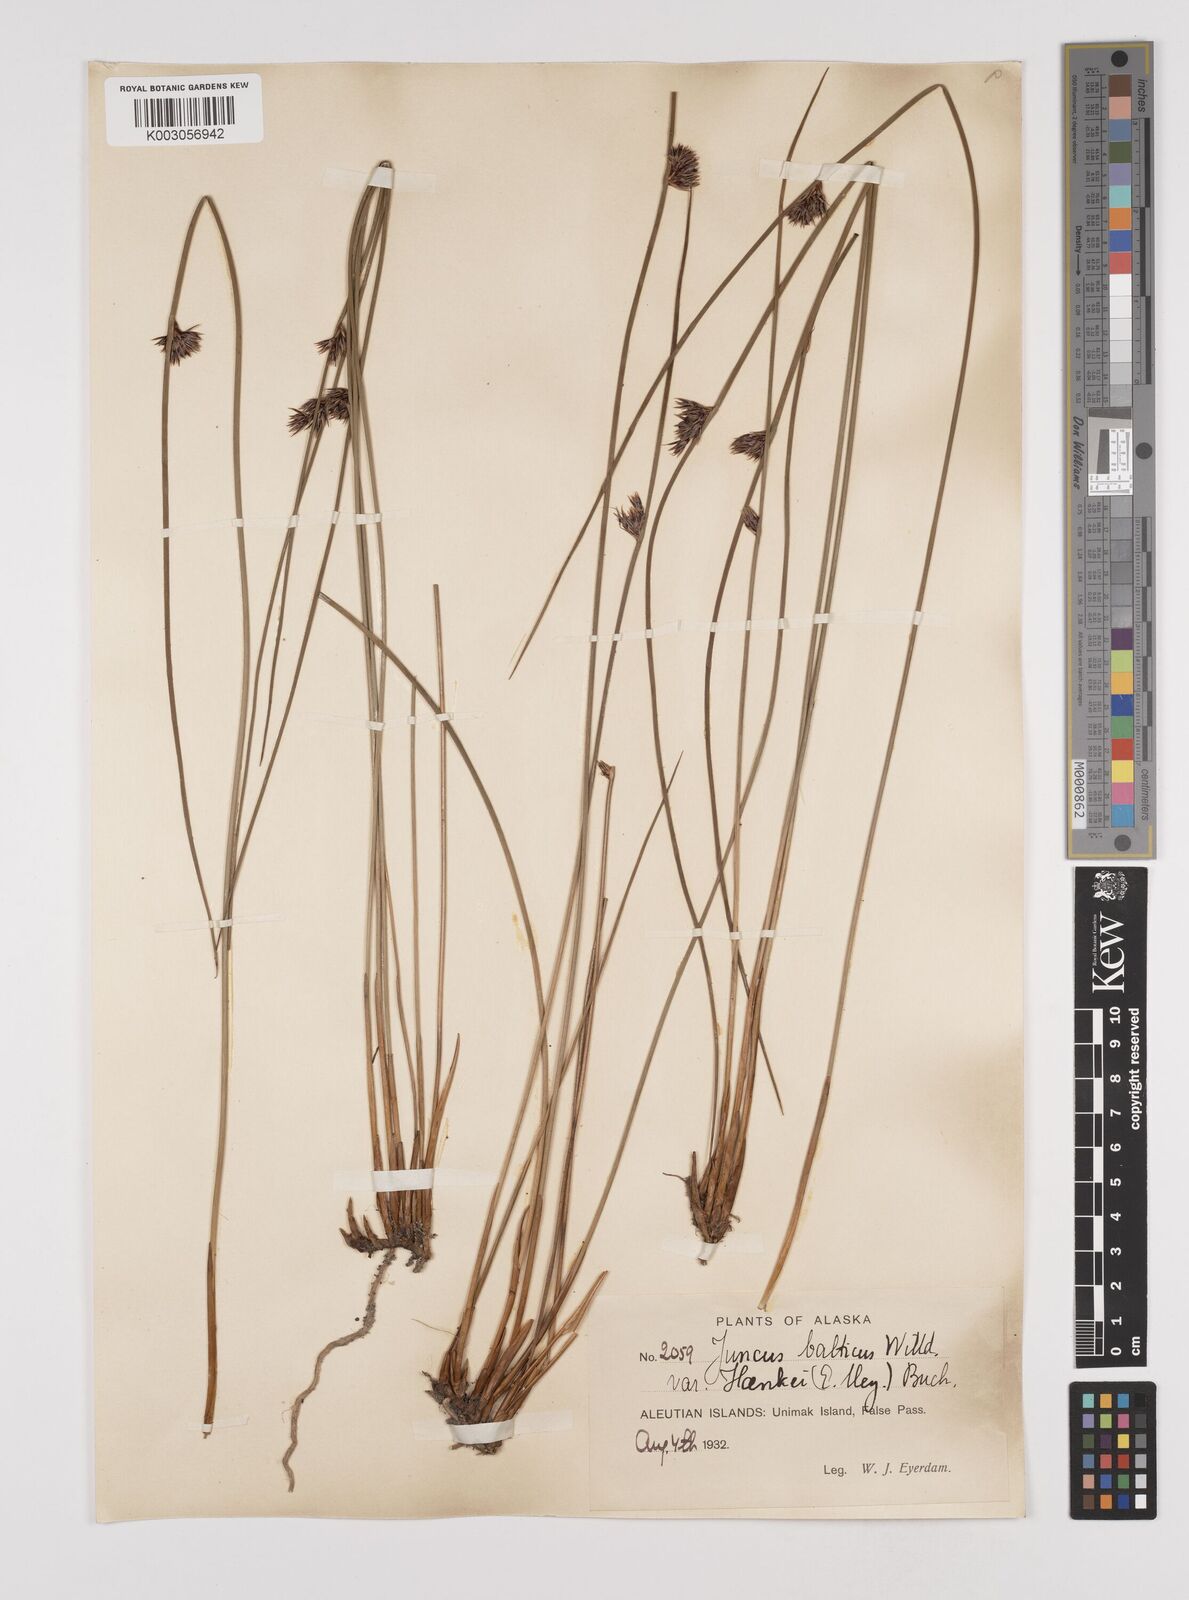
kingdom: Plantae
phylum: Tracheophyta
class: Liliopsida
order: Poales
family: Juncaceae
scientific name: Juncaceae
